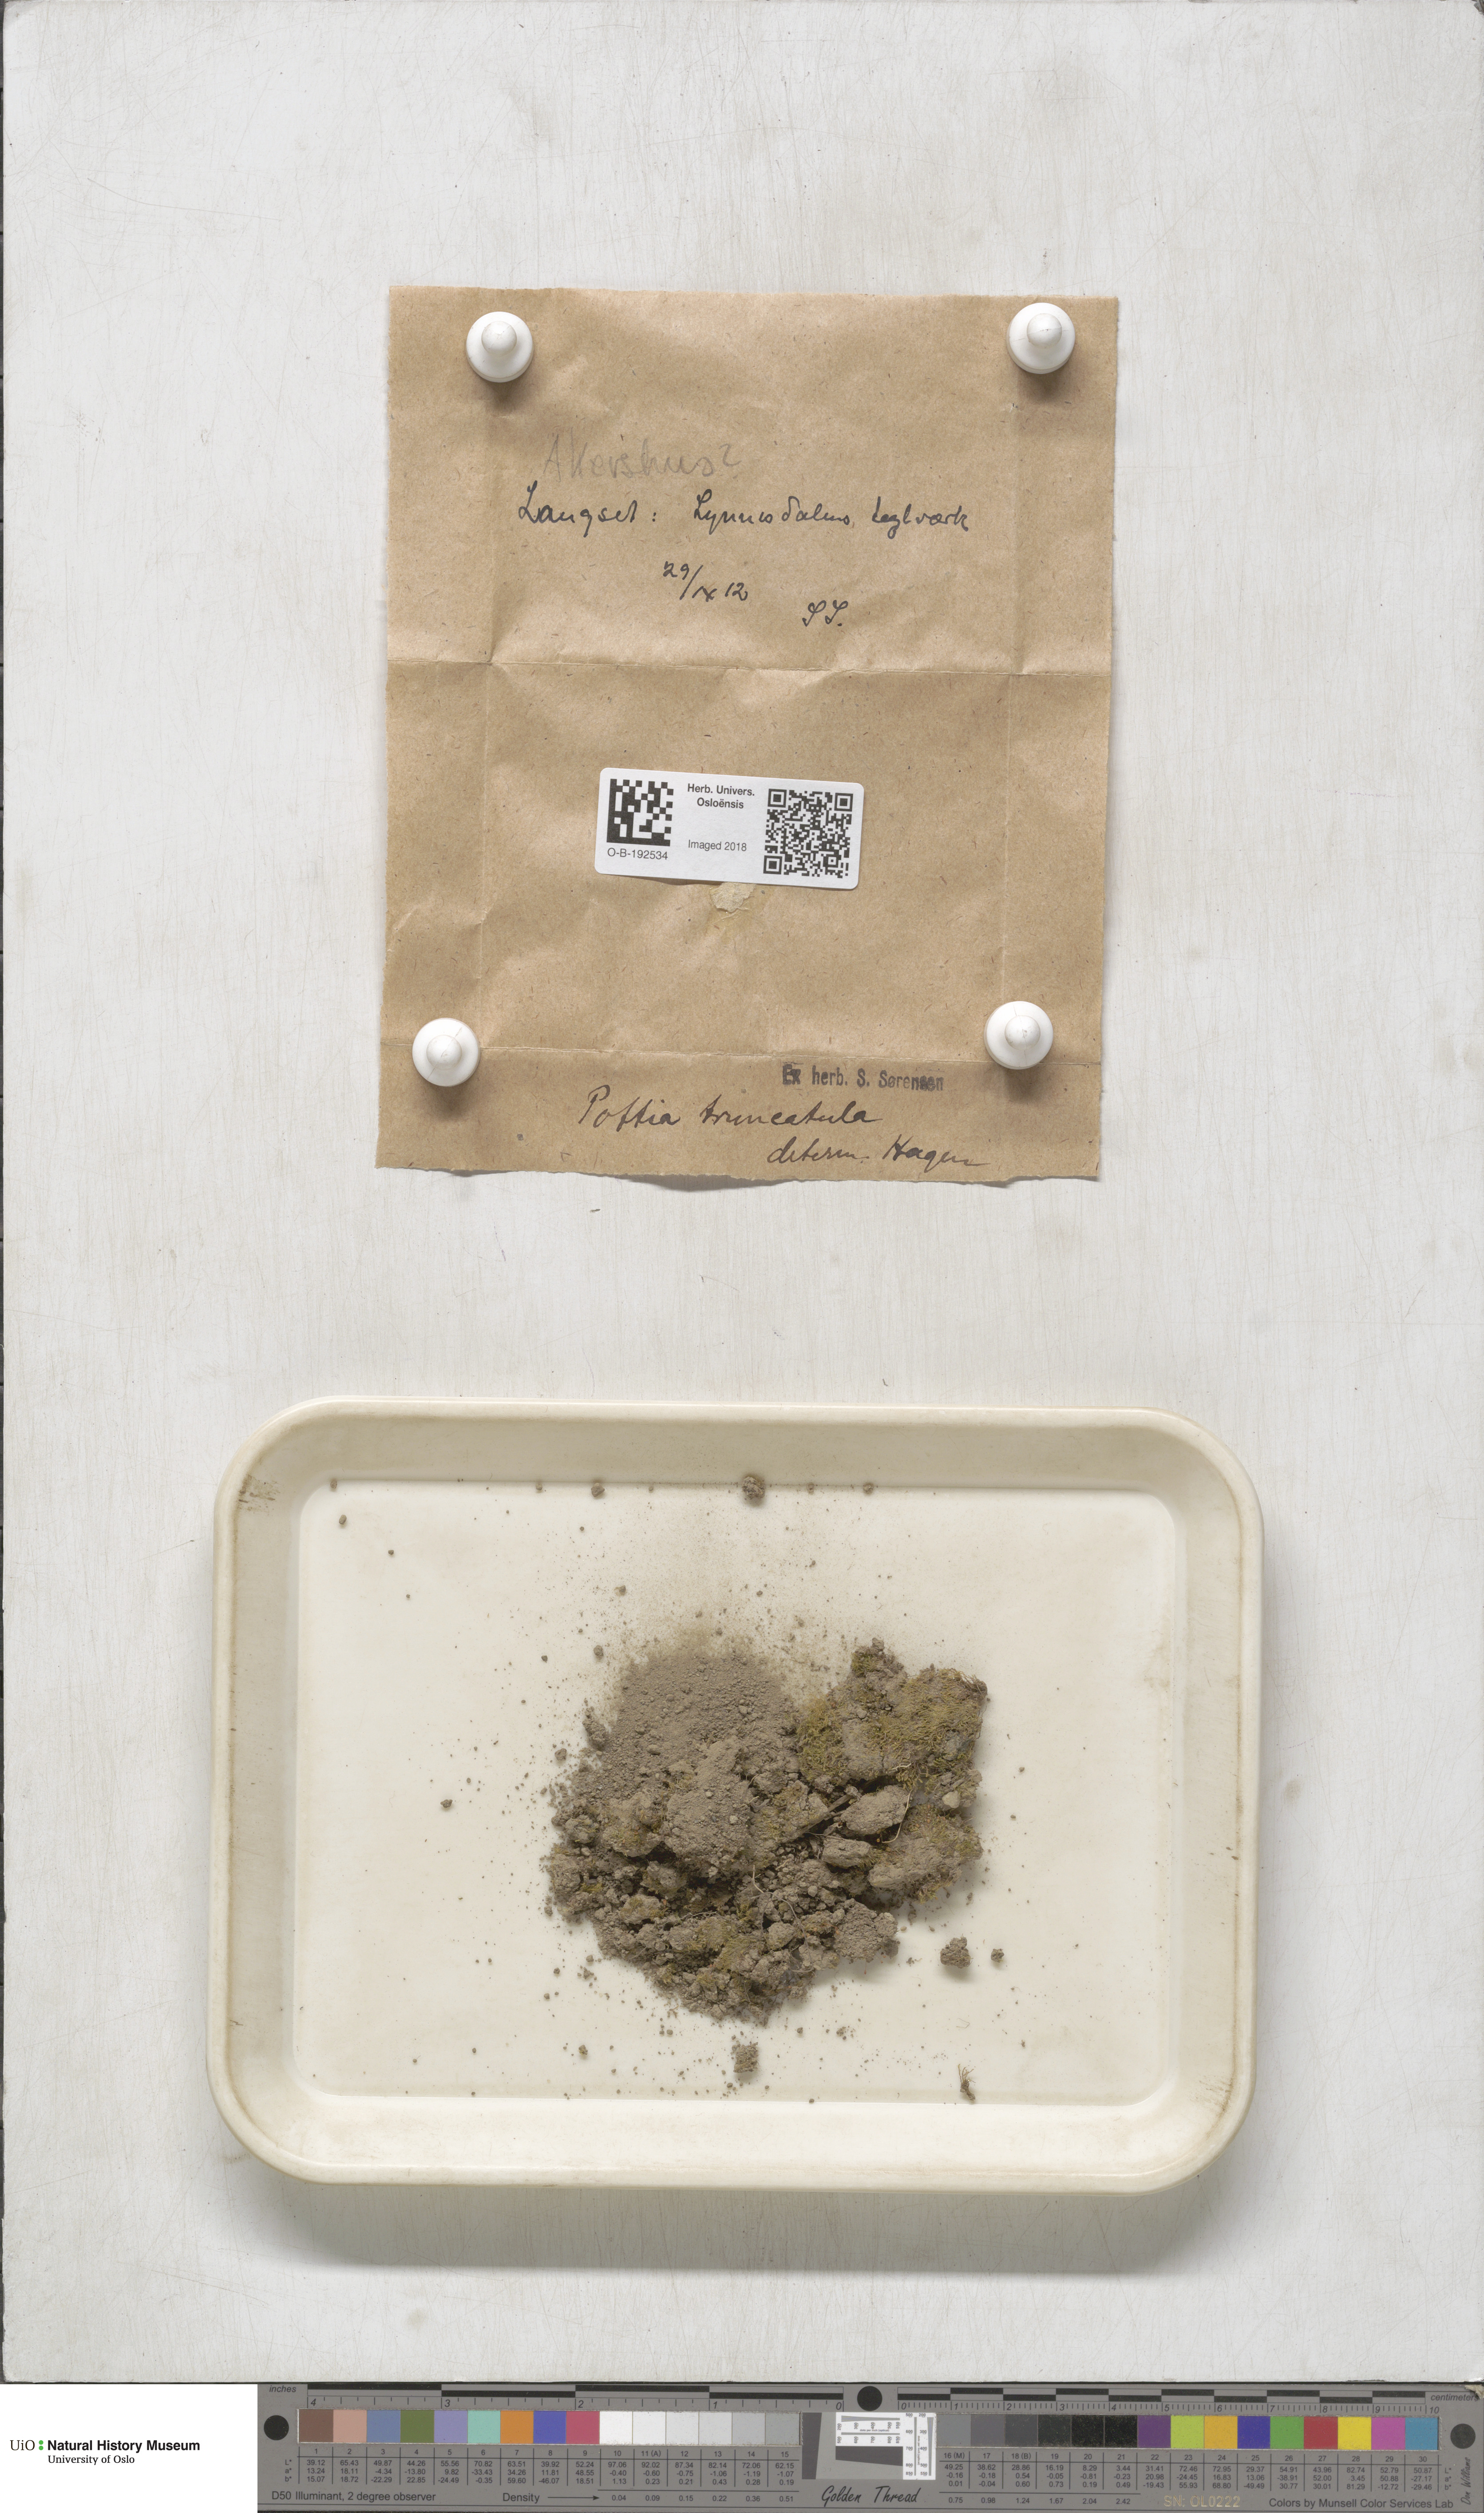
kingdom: Plantae
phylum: Bryophyta
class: Bryopsida
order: Pottiales
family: Pottiaceae
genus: Tortula
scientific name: Tortula truncata
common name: Truncated screw moss
